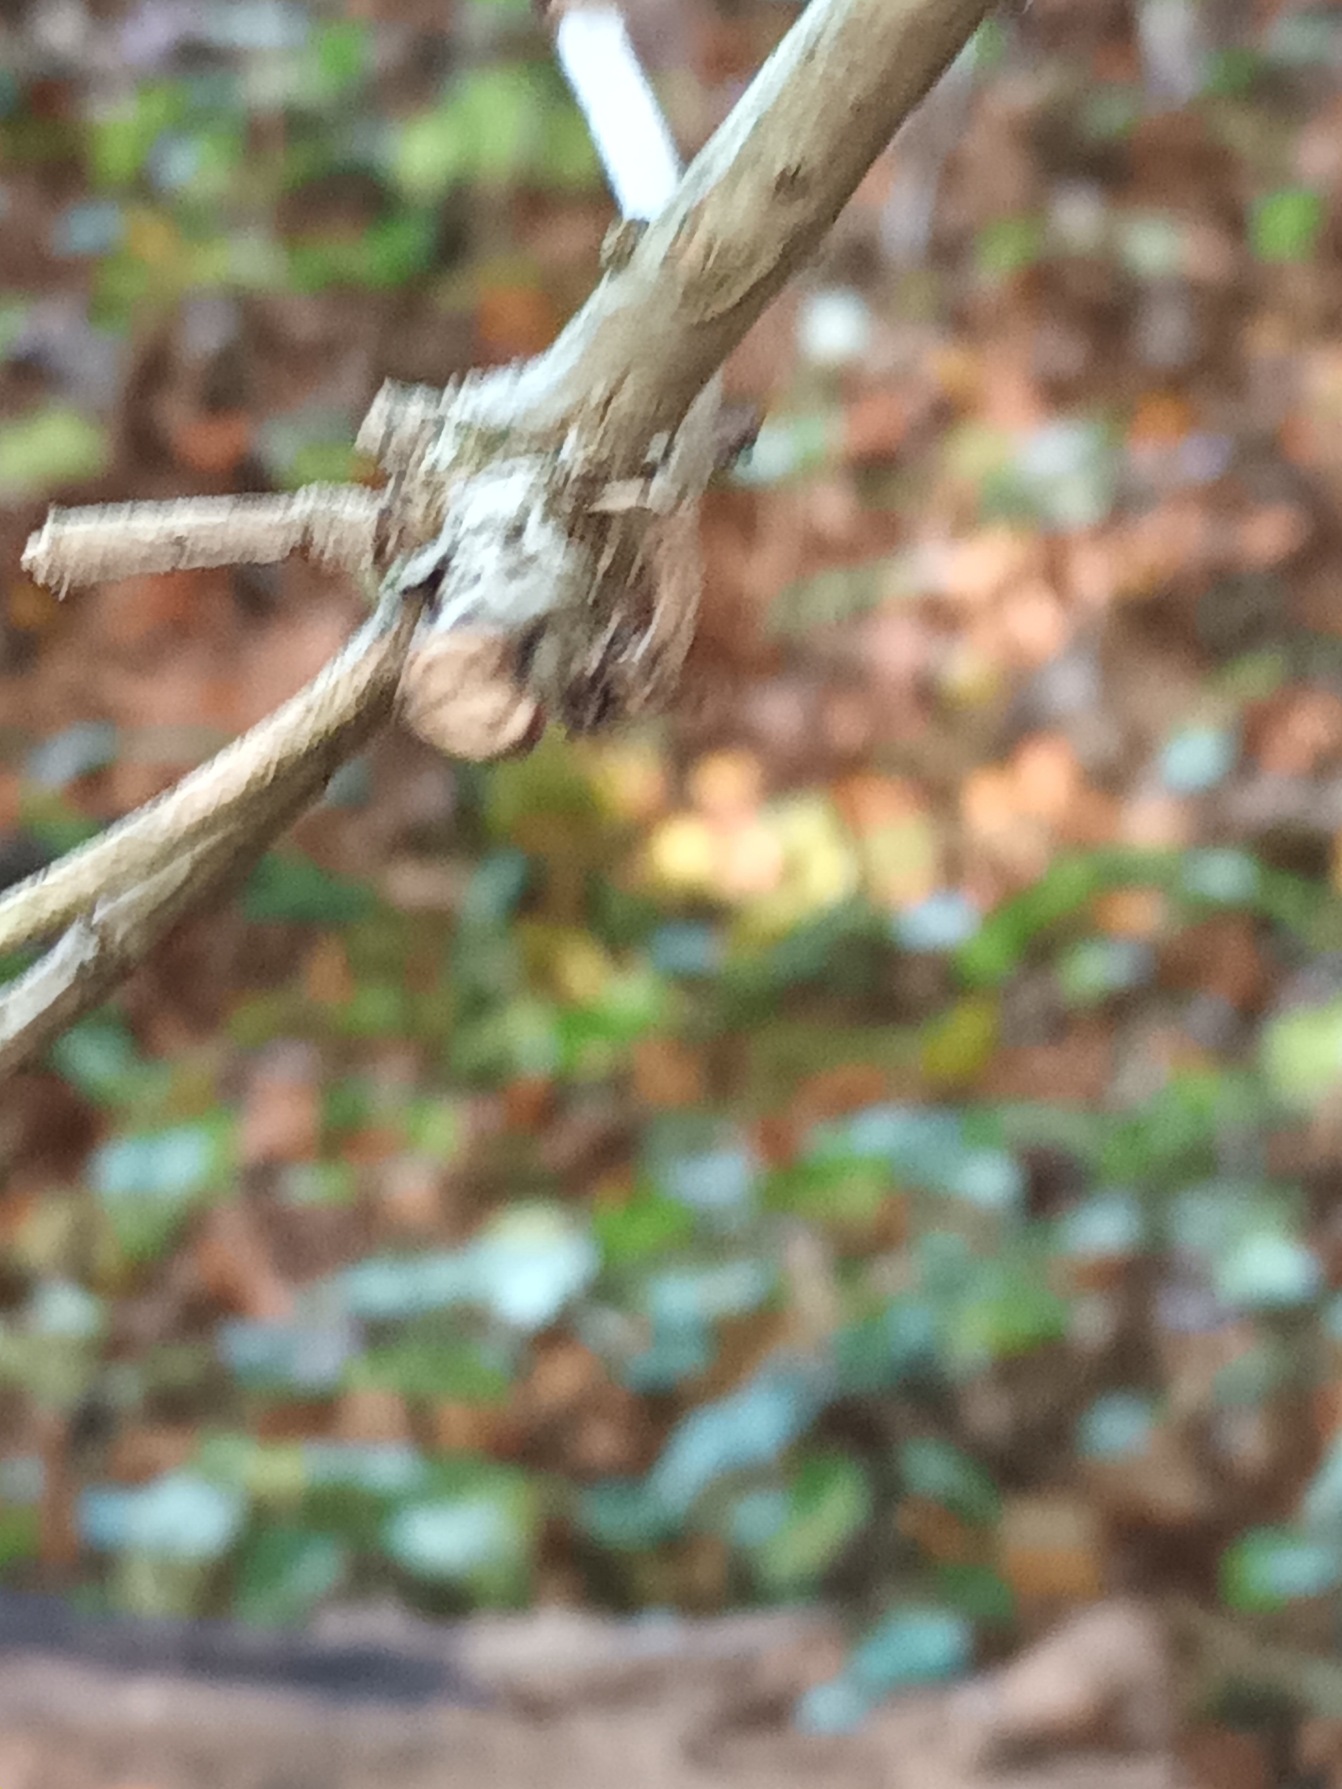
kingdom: Plantae
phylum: Tracheophyta
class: Magnoliopsida
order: Dipsacales
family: Viburnaceae
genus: Sambucus
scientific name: Sambucus nigra
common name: Almindelig hyld
